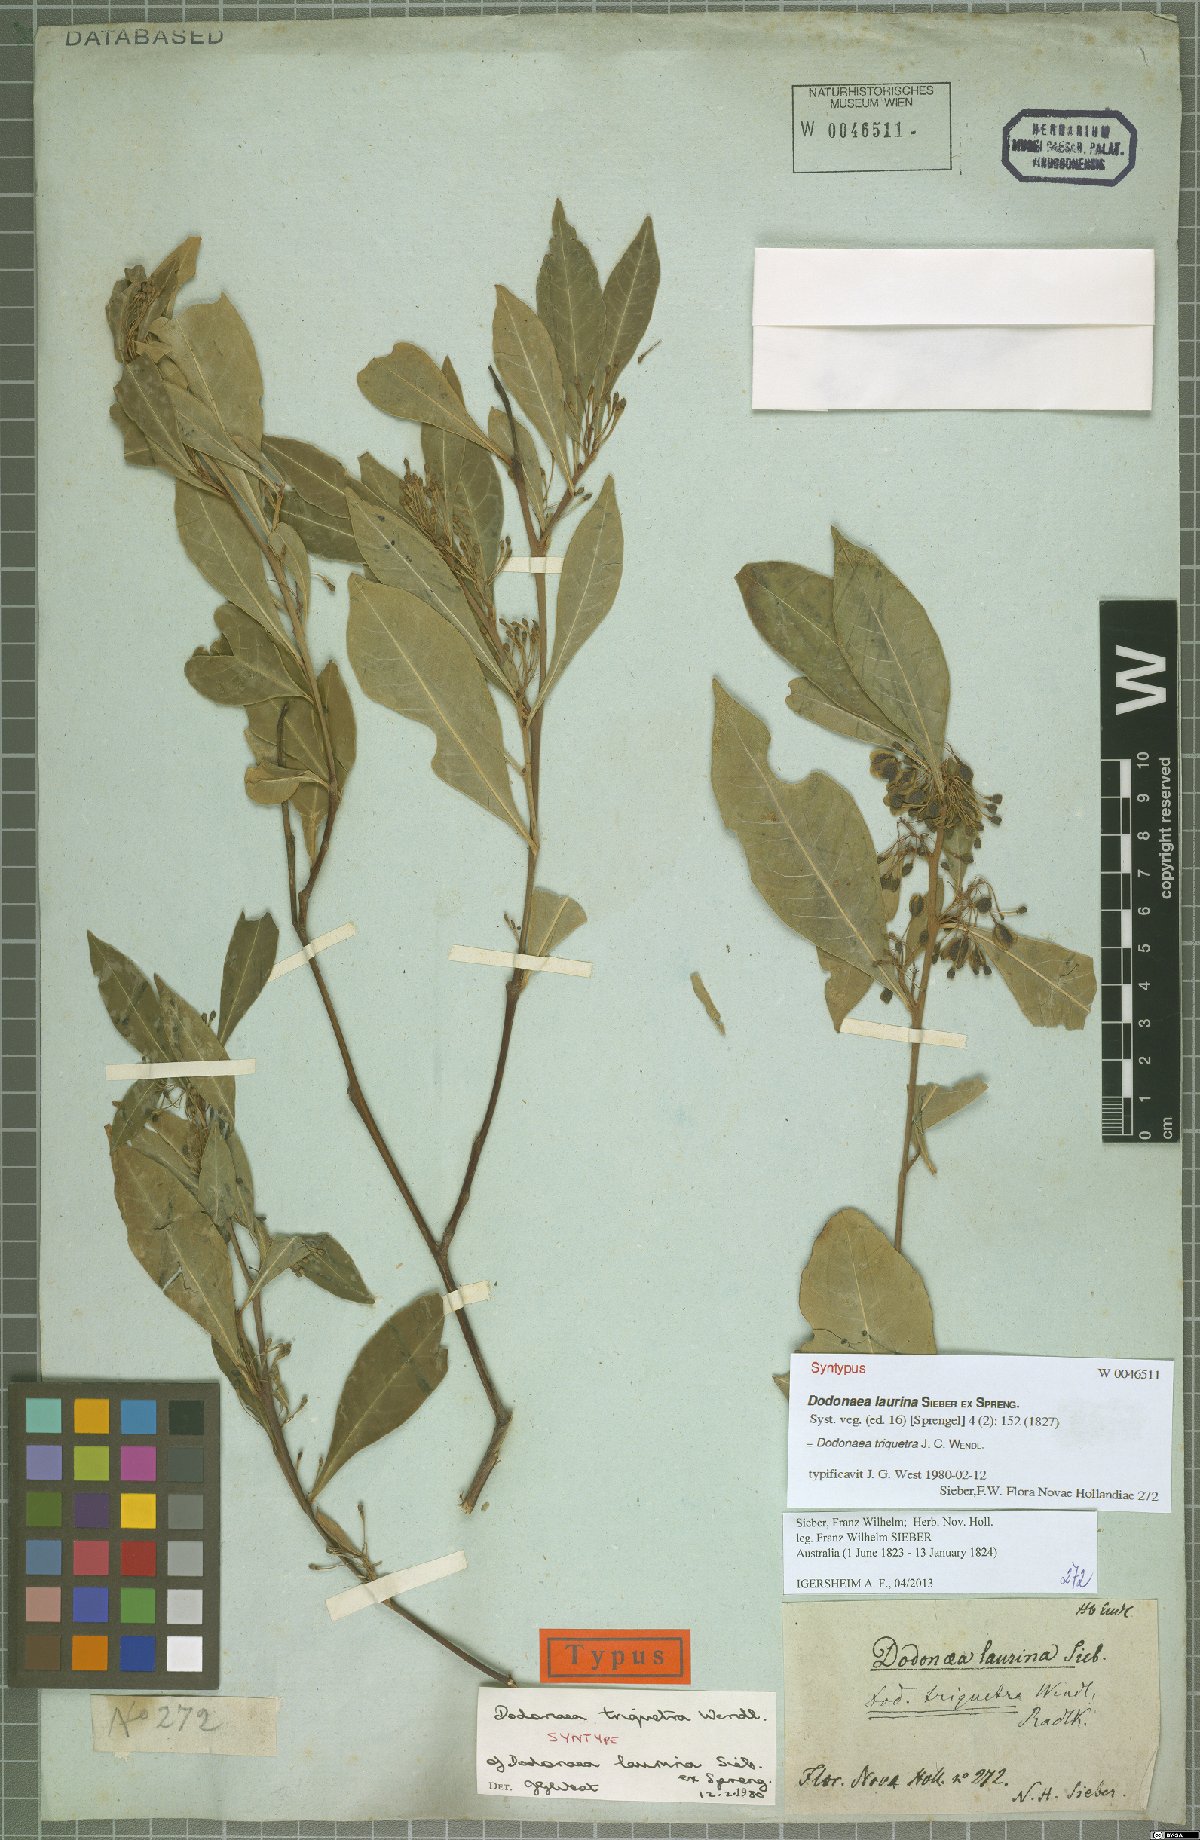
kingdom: Plantae
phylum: Tracheophyta
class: Magnoliopsida
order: Sapindales
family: Sapindaceae
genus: Dodonaea
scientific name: Dodonaea triquetra
